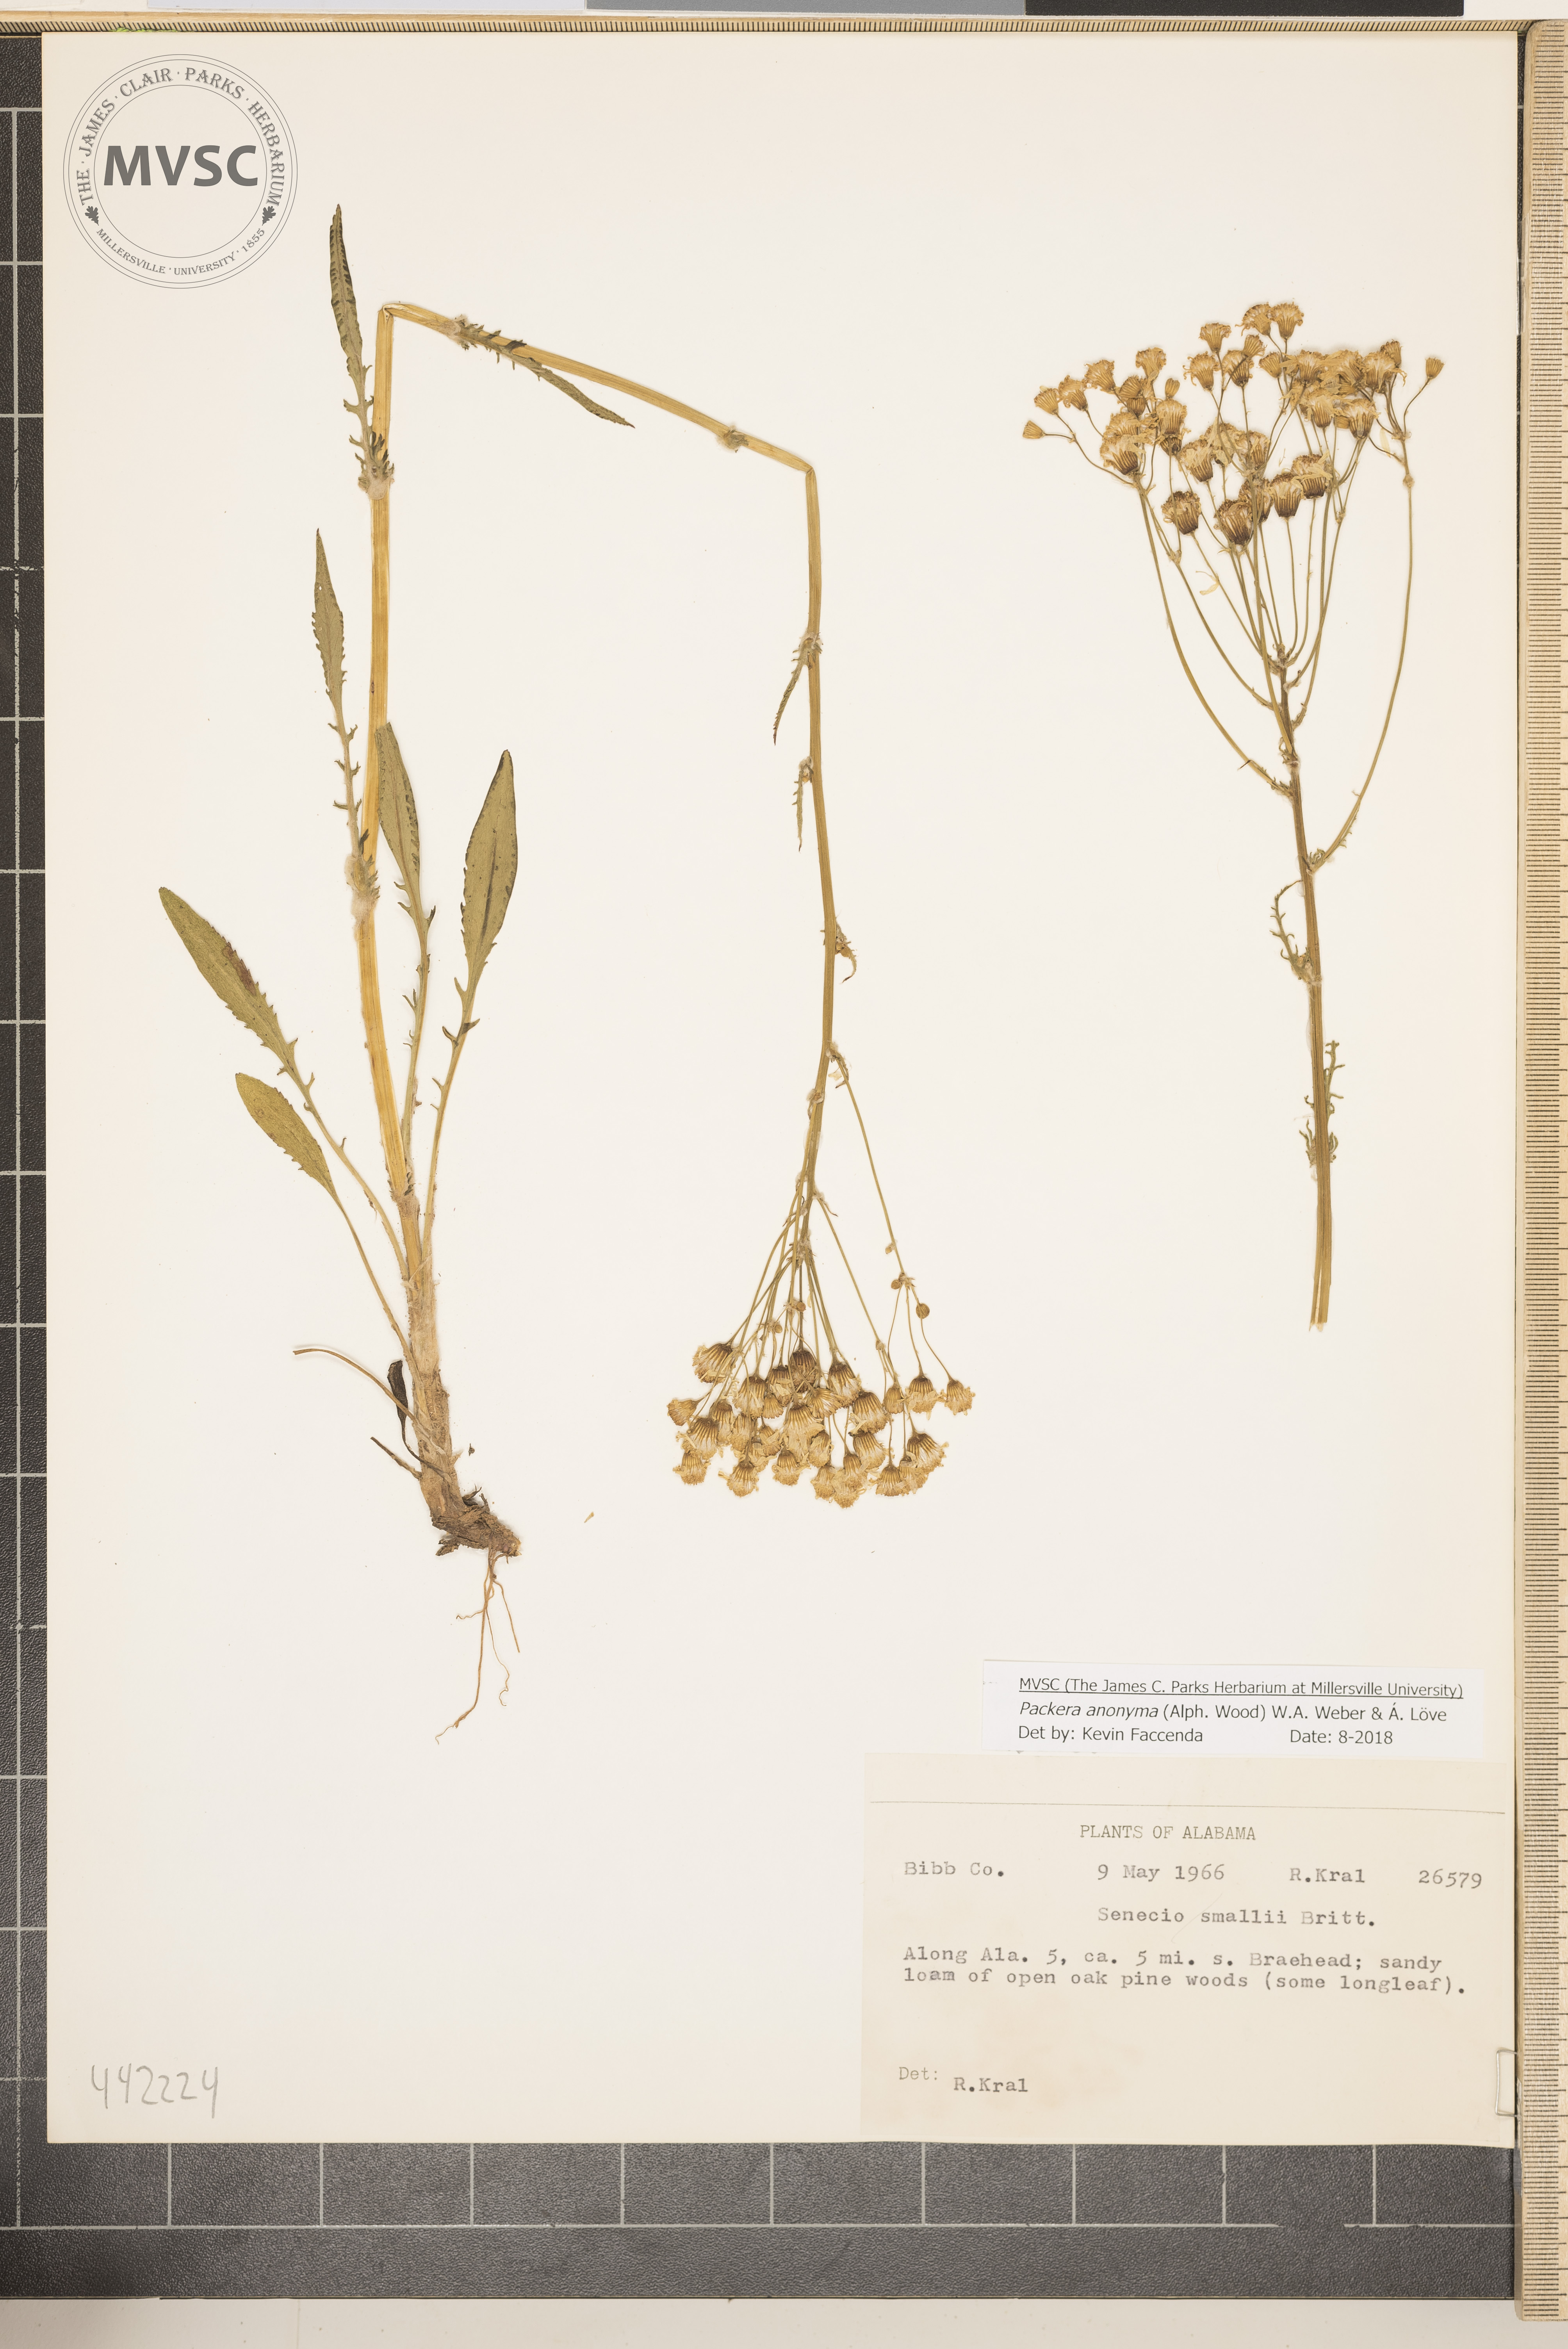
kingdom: Plantae
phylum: Tracheophyta
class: Magnoliopsida
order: Asterales
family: Asteraceae
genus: Packera
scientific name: Packera anonyma
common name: Small ragwort
